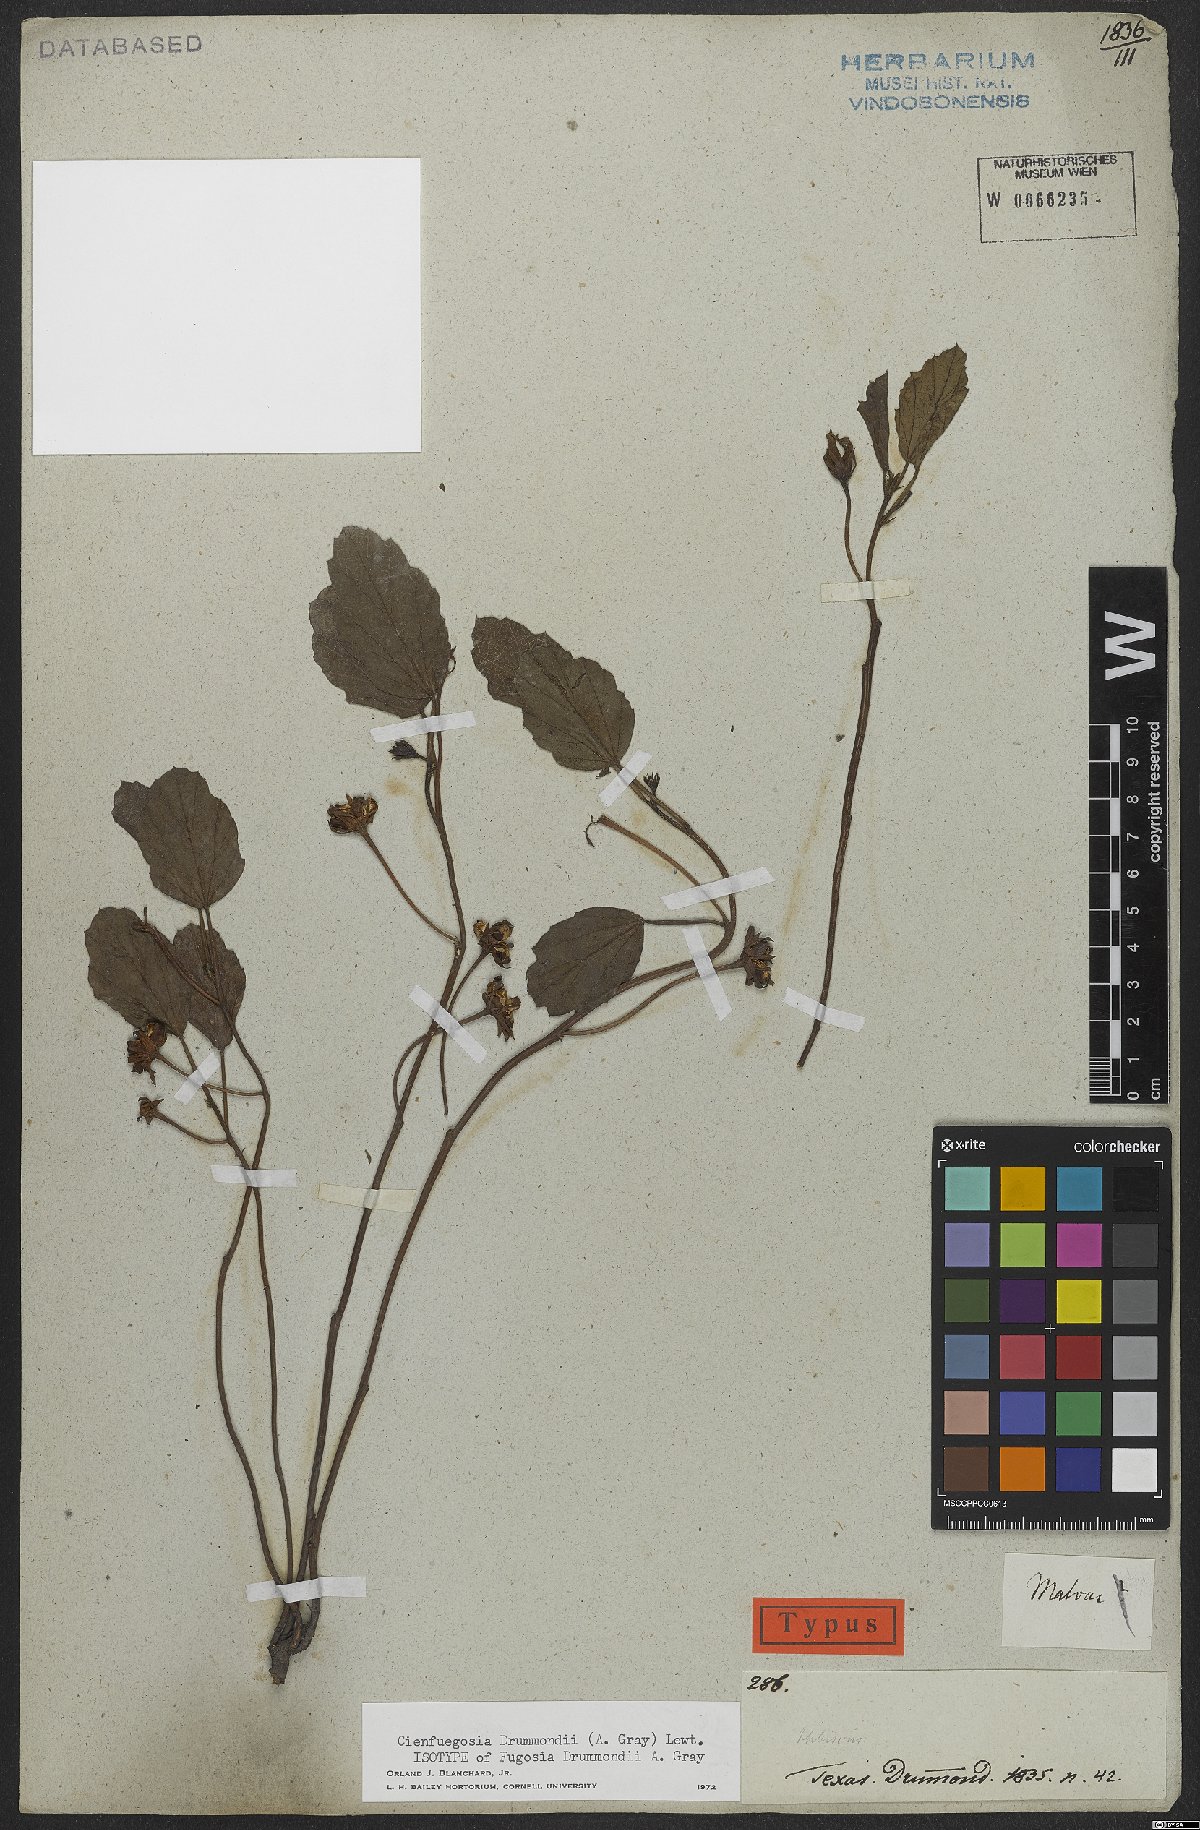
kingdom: Plantae
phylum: Tracheophyta
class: Magnoliopsida
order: Malvales
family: Malvaceae
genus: Cienfuegosia
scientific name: Cienfuegosia drummondii
